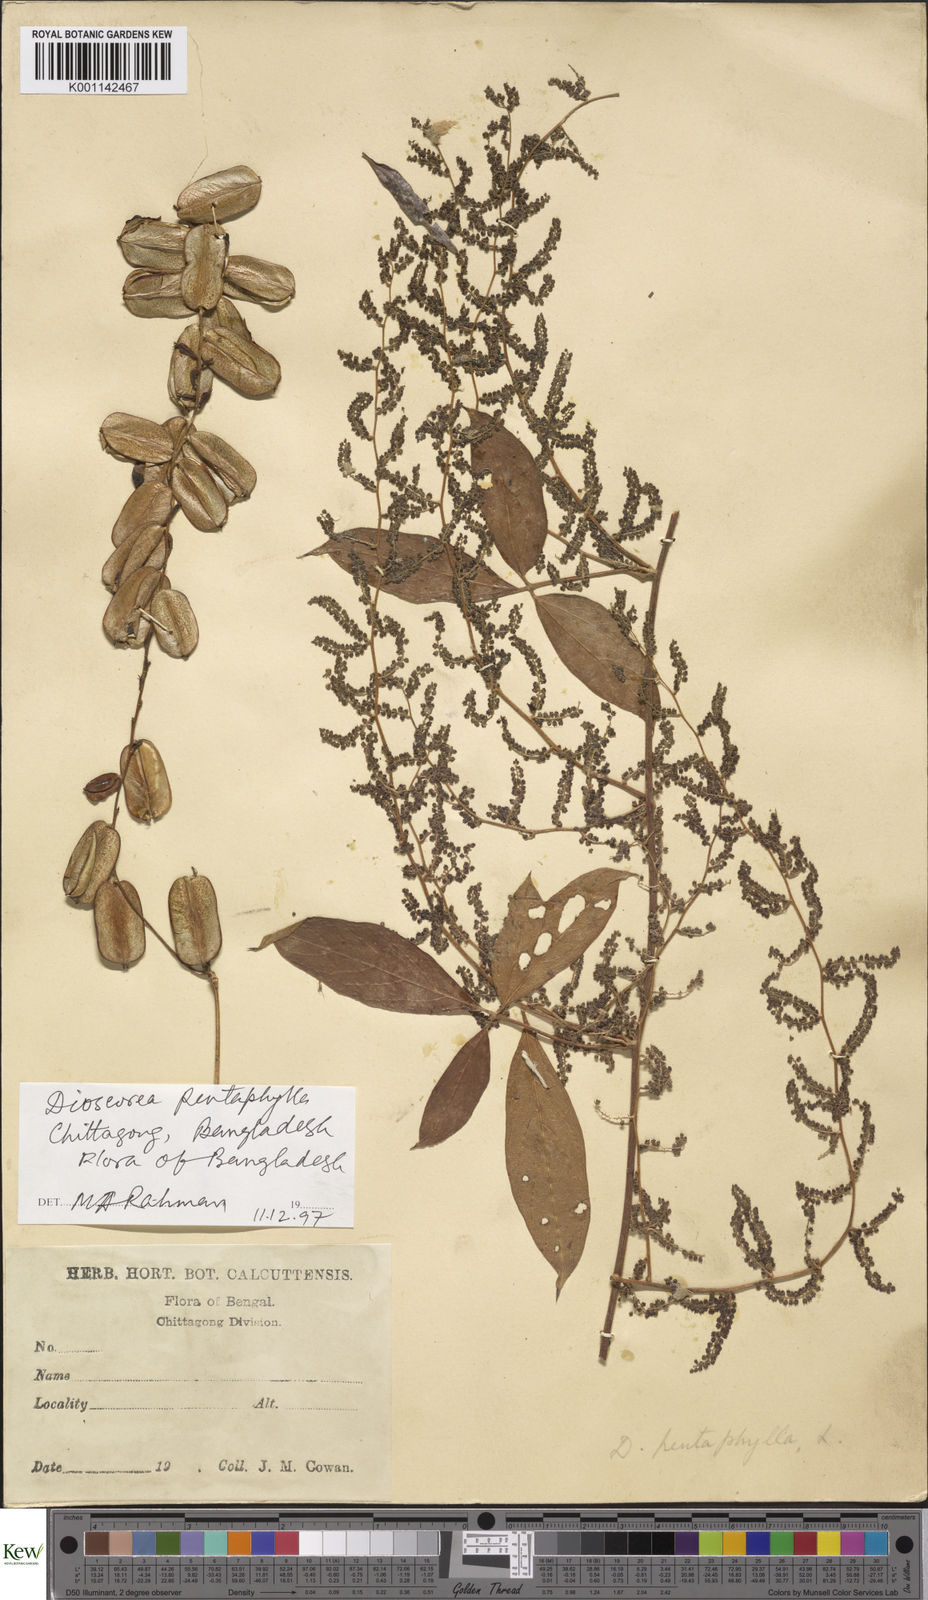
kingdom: Plantae
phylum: Tracheophyta
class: Liliopsida
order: Dioscoreales
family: Dioscoreaceae
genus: Dioscorea
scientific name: Dioscorea pentaphylla
